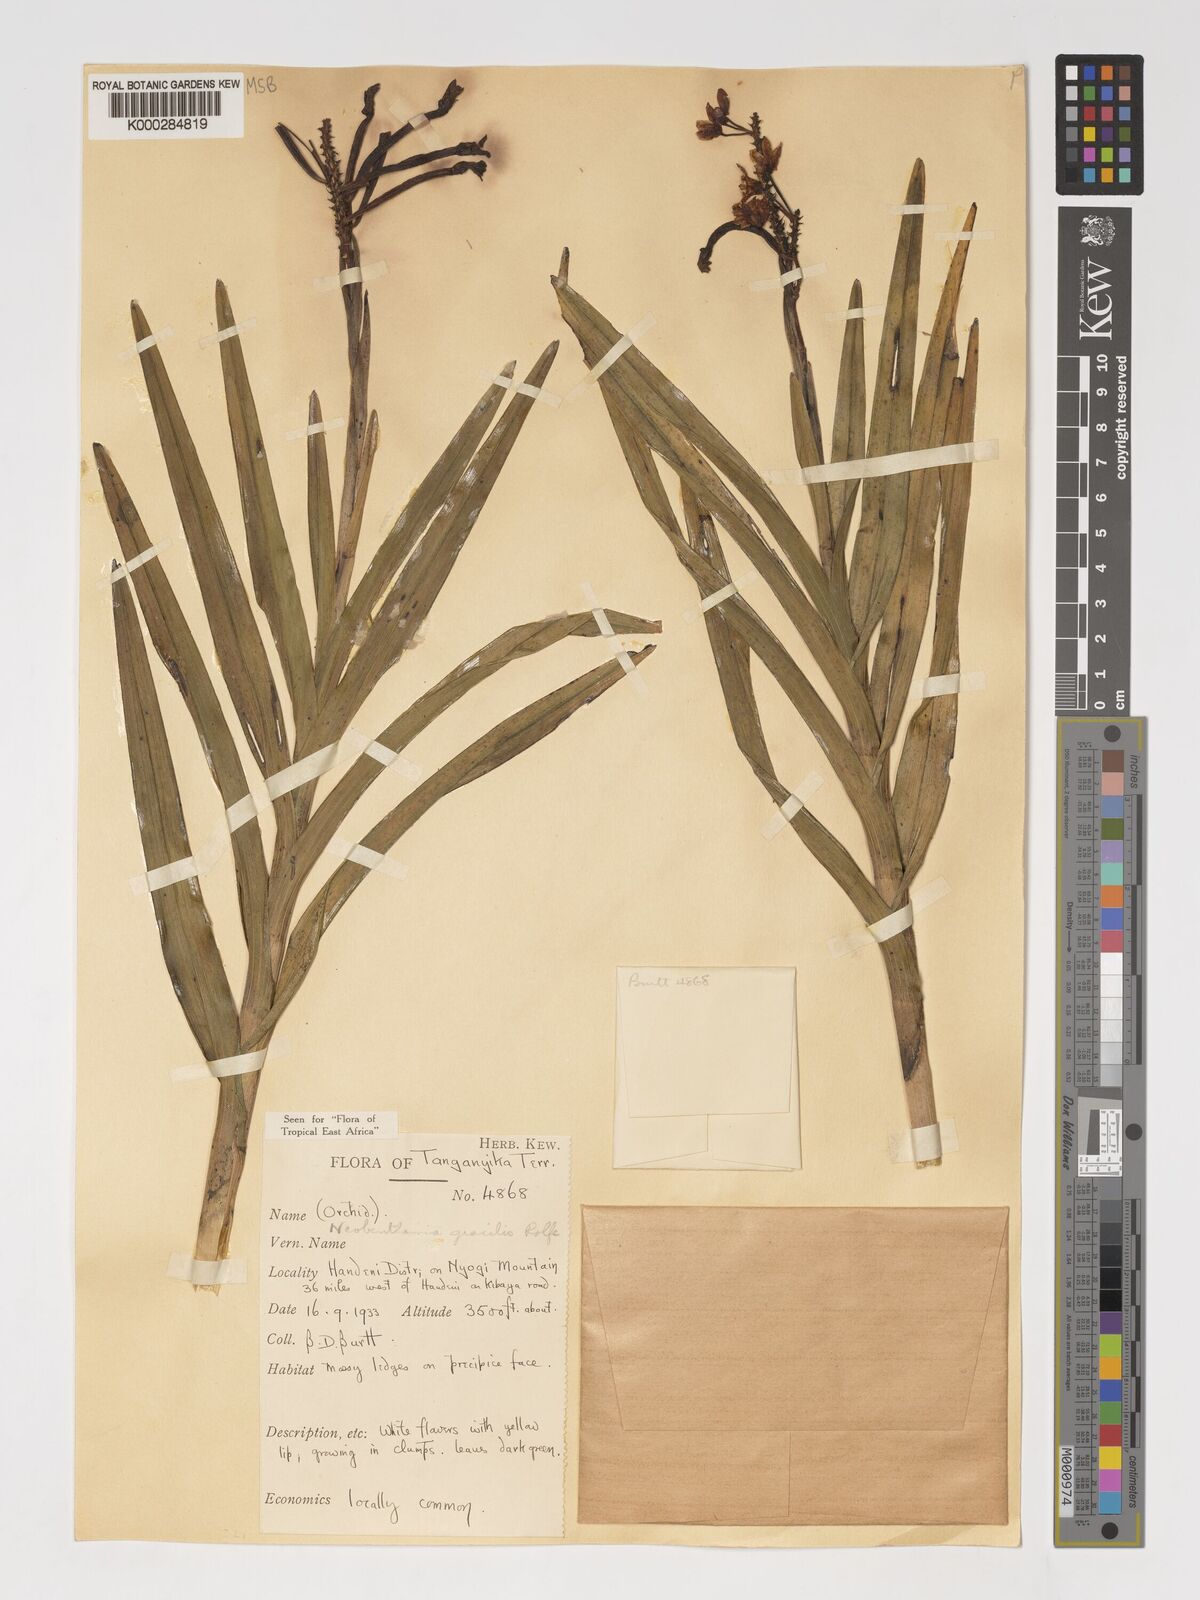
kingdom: Plantae
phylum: Tracheophyta
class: Liliopsida
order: Asparagales
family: Orchidaceae
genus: Polystachya
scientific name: Polystachya neobenthamia
